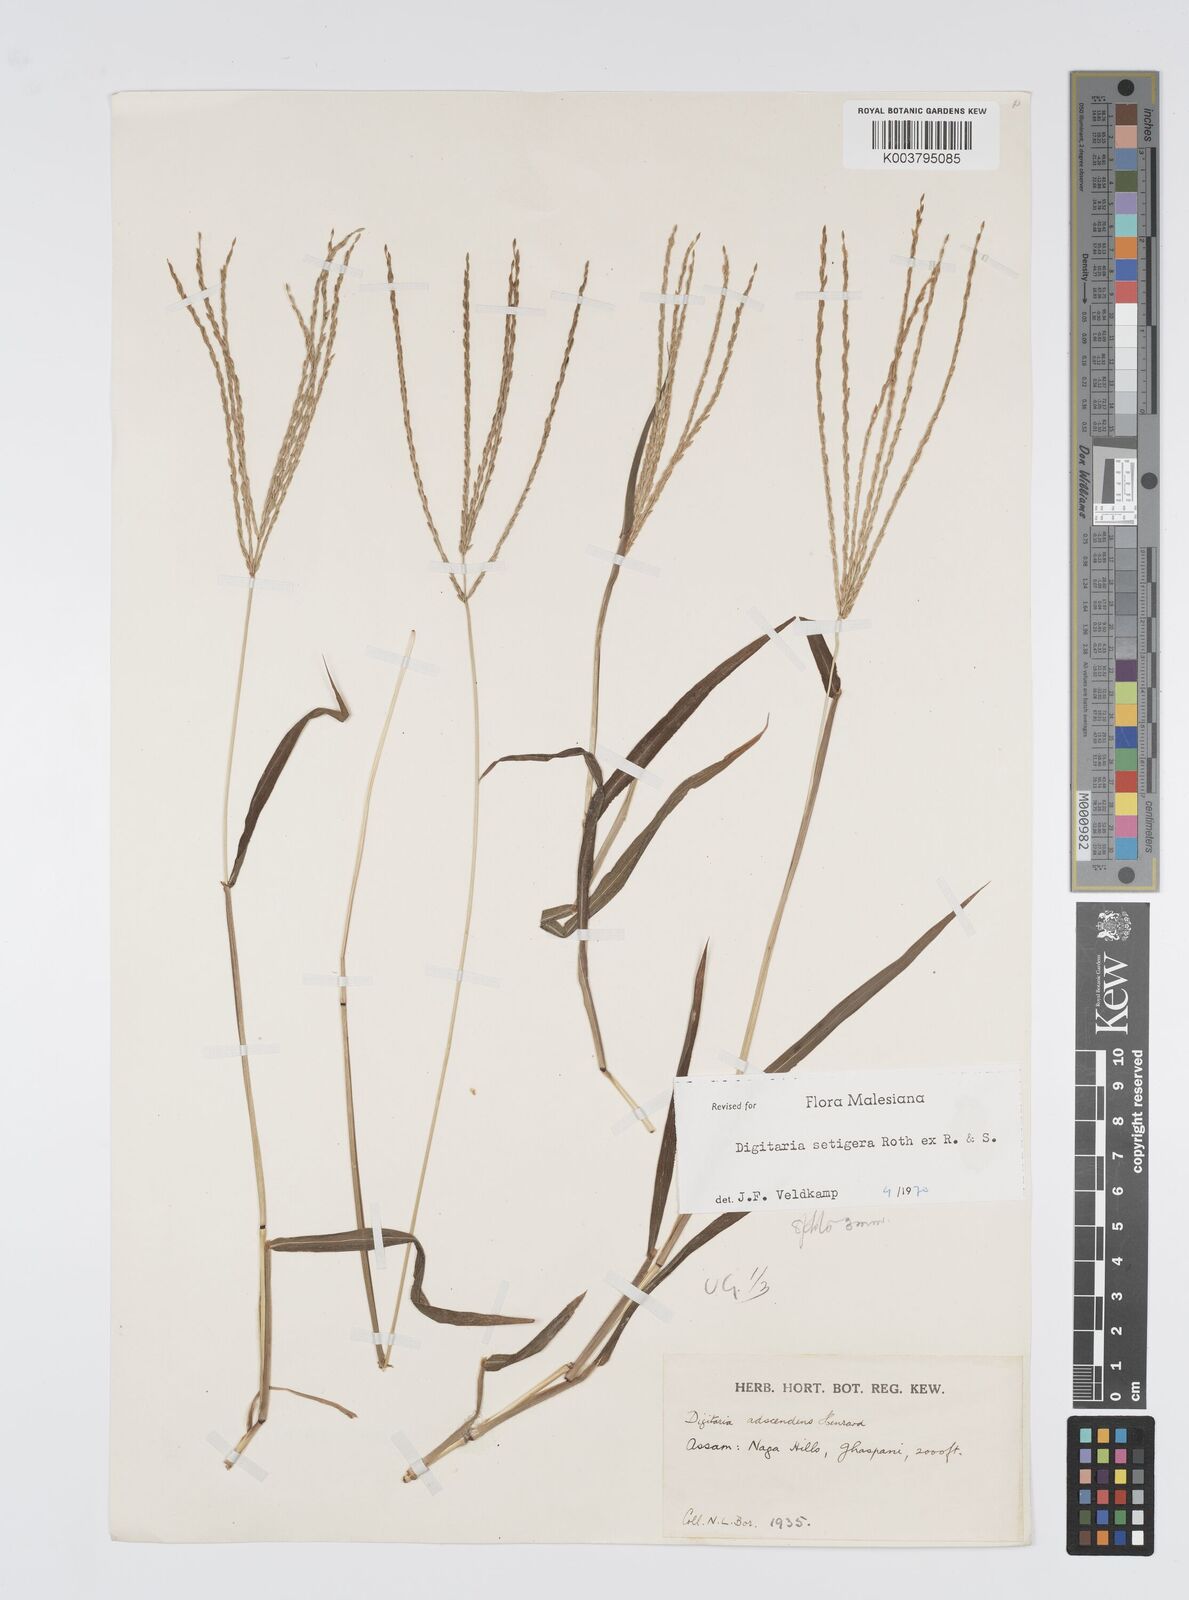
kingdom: Plantae
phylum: Tracheophyta
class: Liliopsida
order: Poales
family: Poaceae
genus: Digitaria
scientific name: Digitaria setigera
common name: East indian crabgrass
